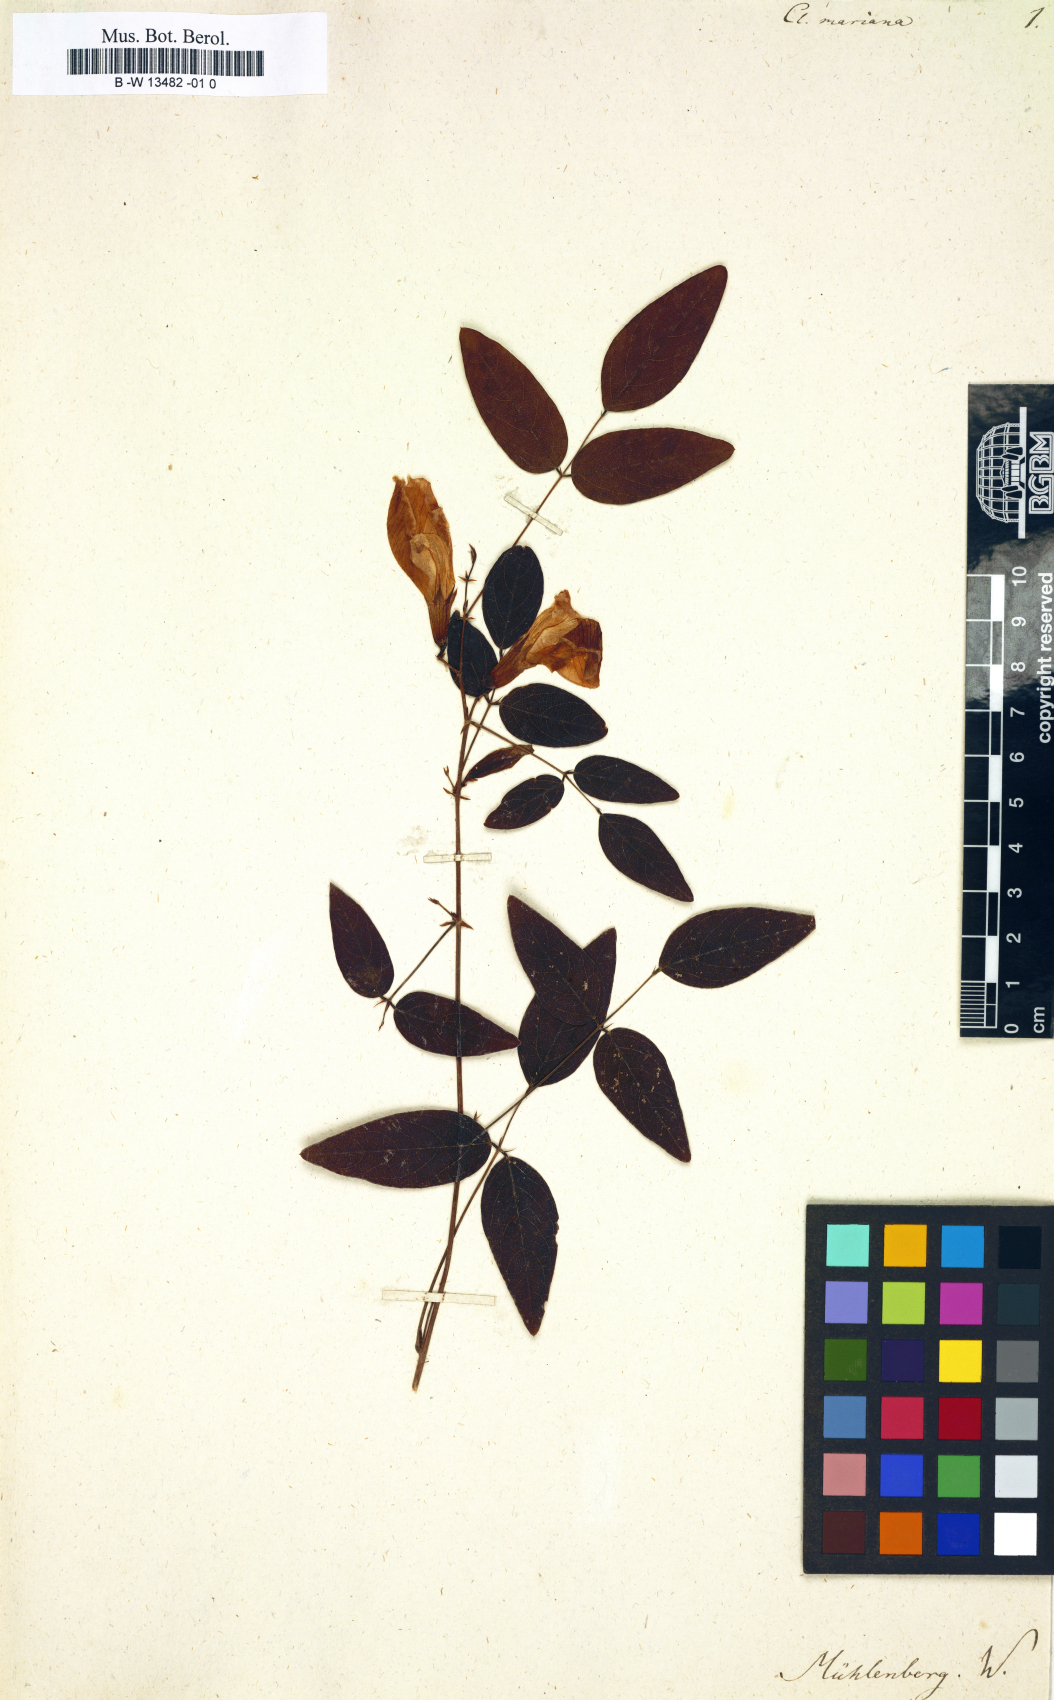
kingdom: Plantae
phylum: Tracheophyta
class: Magnoliopsida
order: Fabales
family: Fabaceae
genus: Clitoria
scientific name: Clitoria mariana
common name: Butterfly-pea
